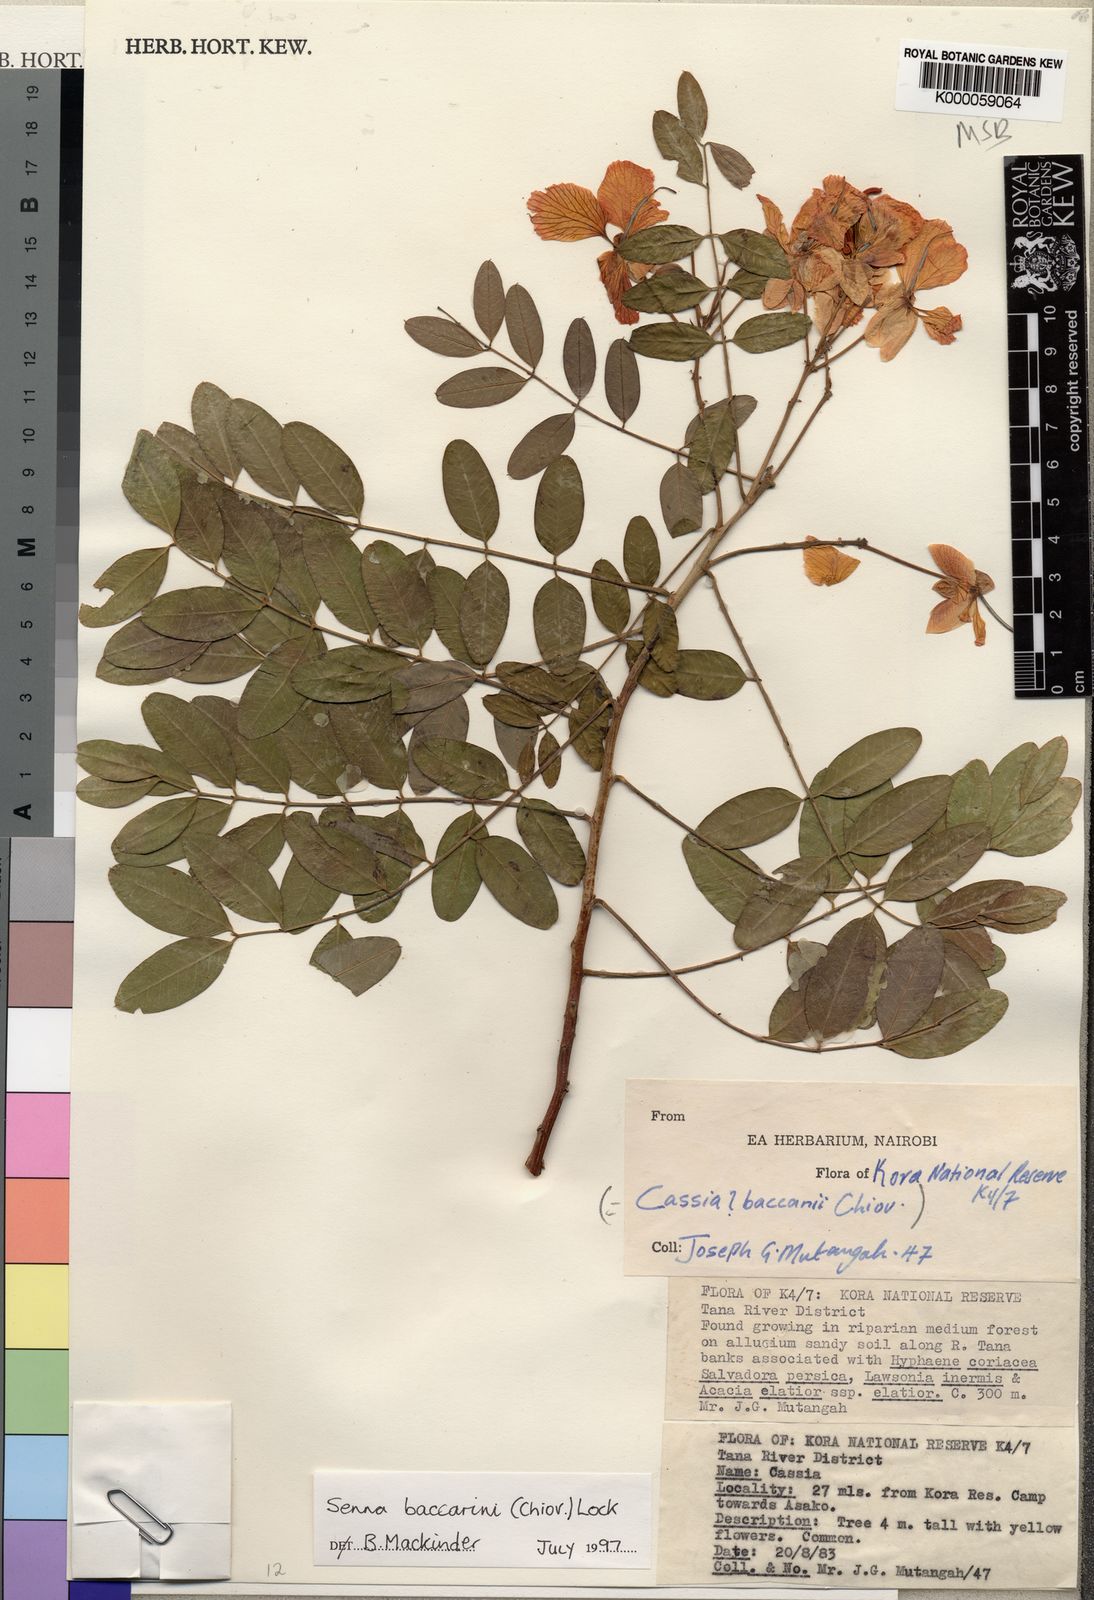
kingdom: Plantae
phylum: Tracheophyta
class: Magnoliopsida
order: Fabales
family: Fabaceae
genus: Senna
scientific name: Senna baccarinii
